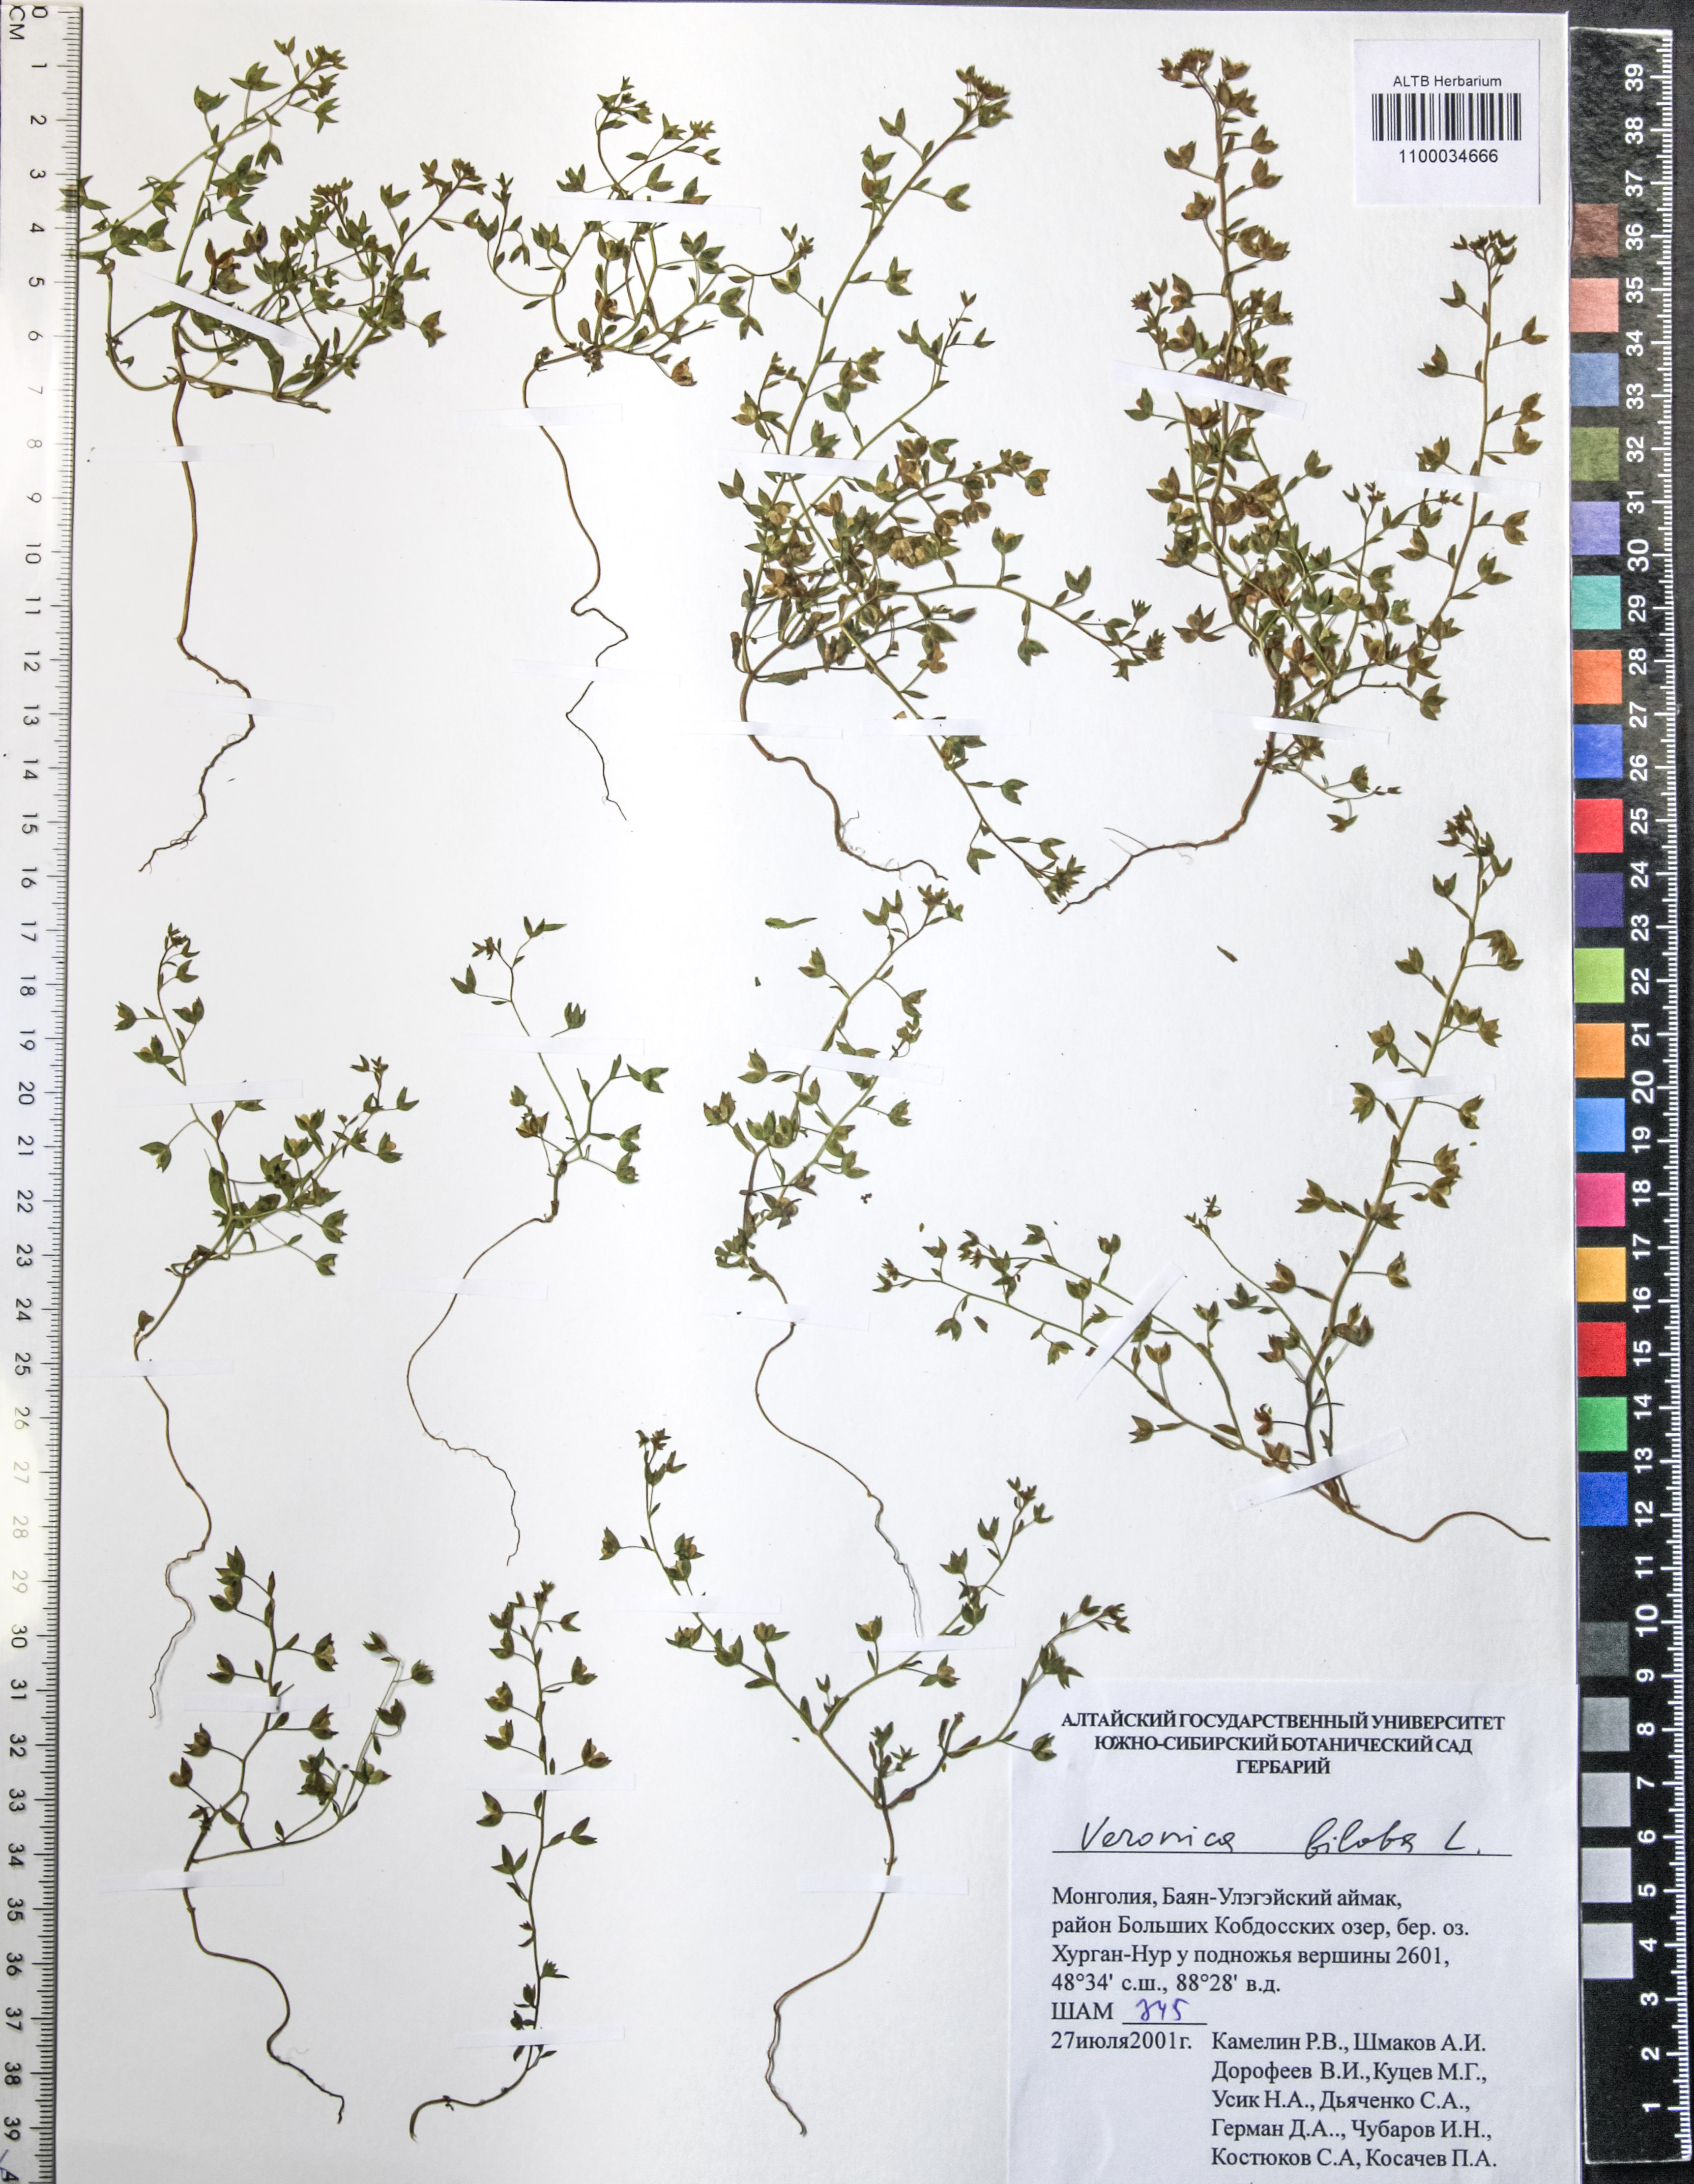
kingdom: Plantae
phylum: Tracheophyta
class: Magnoliopsida
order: Lamiales
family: Plantaginaceae
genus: Veronica
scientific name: Veronica biloba
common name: Twolobe speedwell
